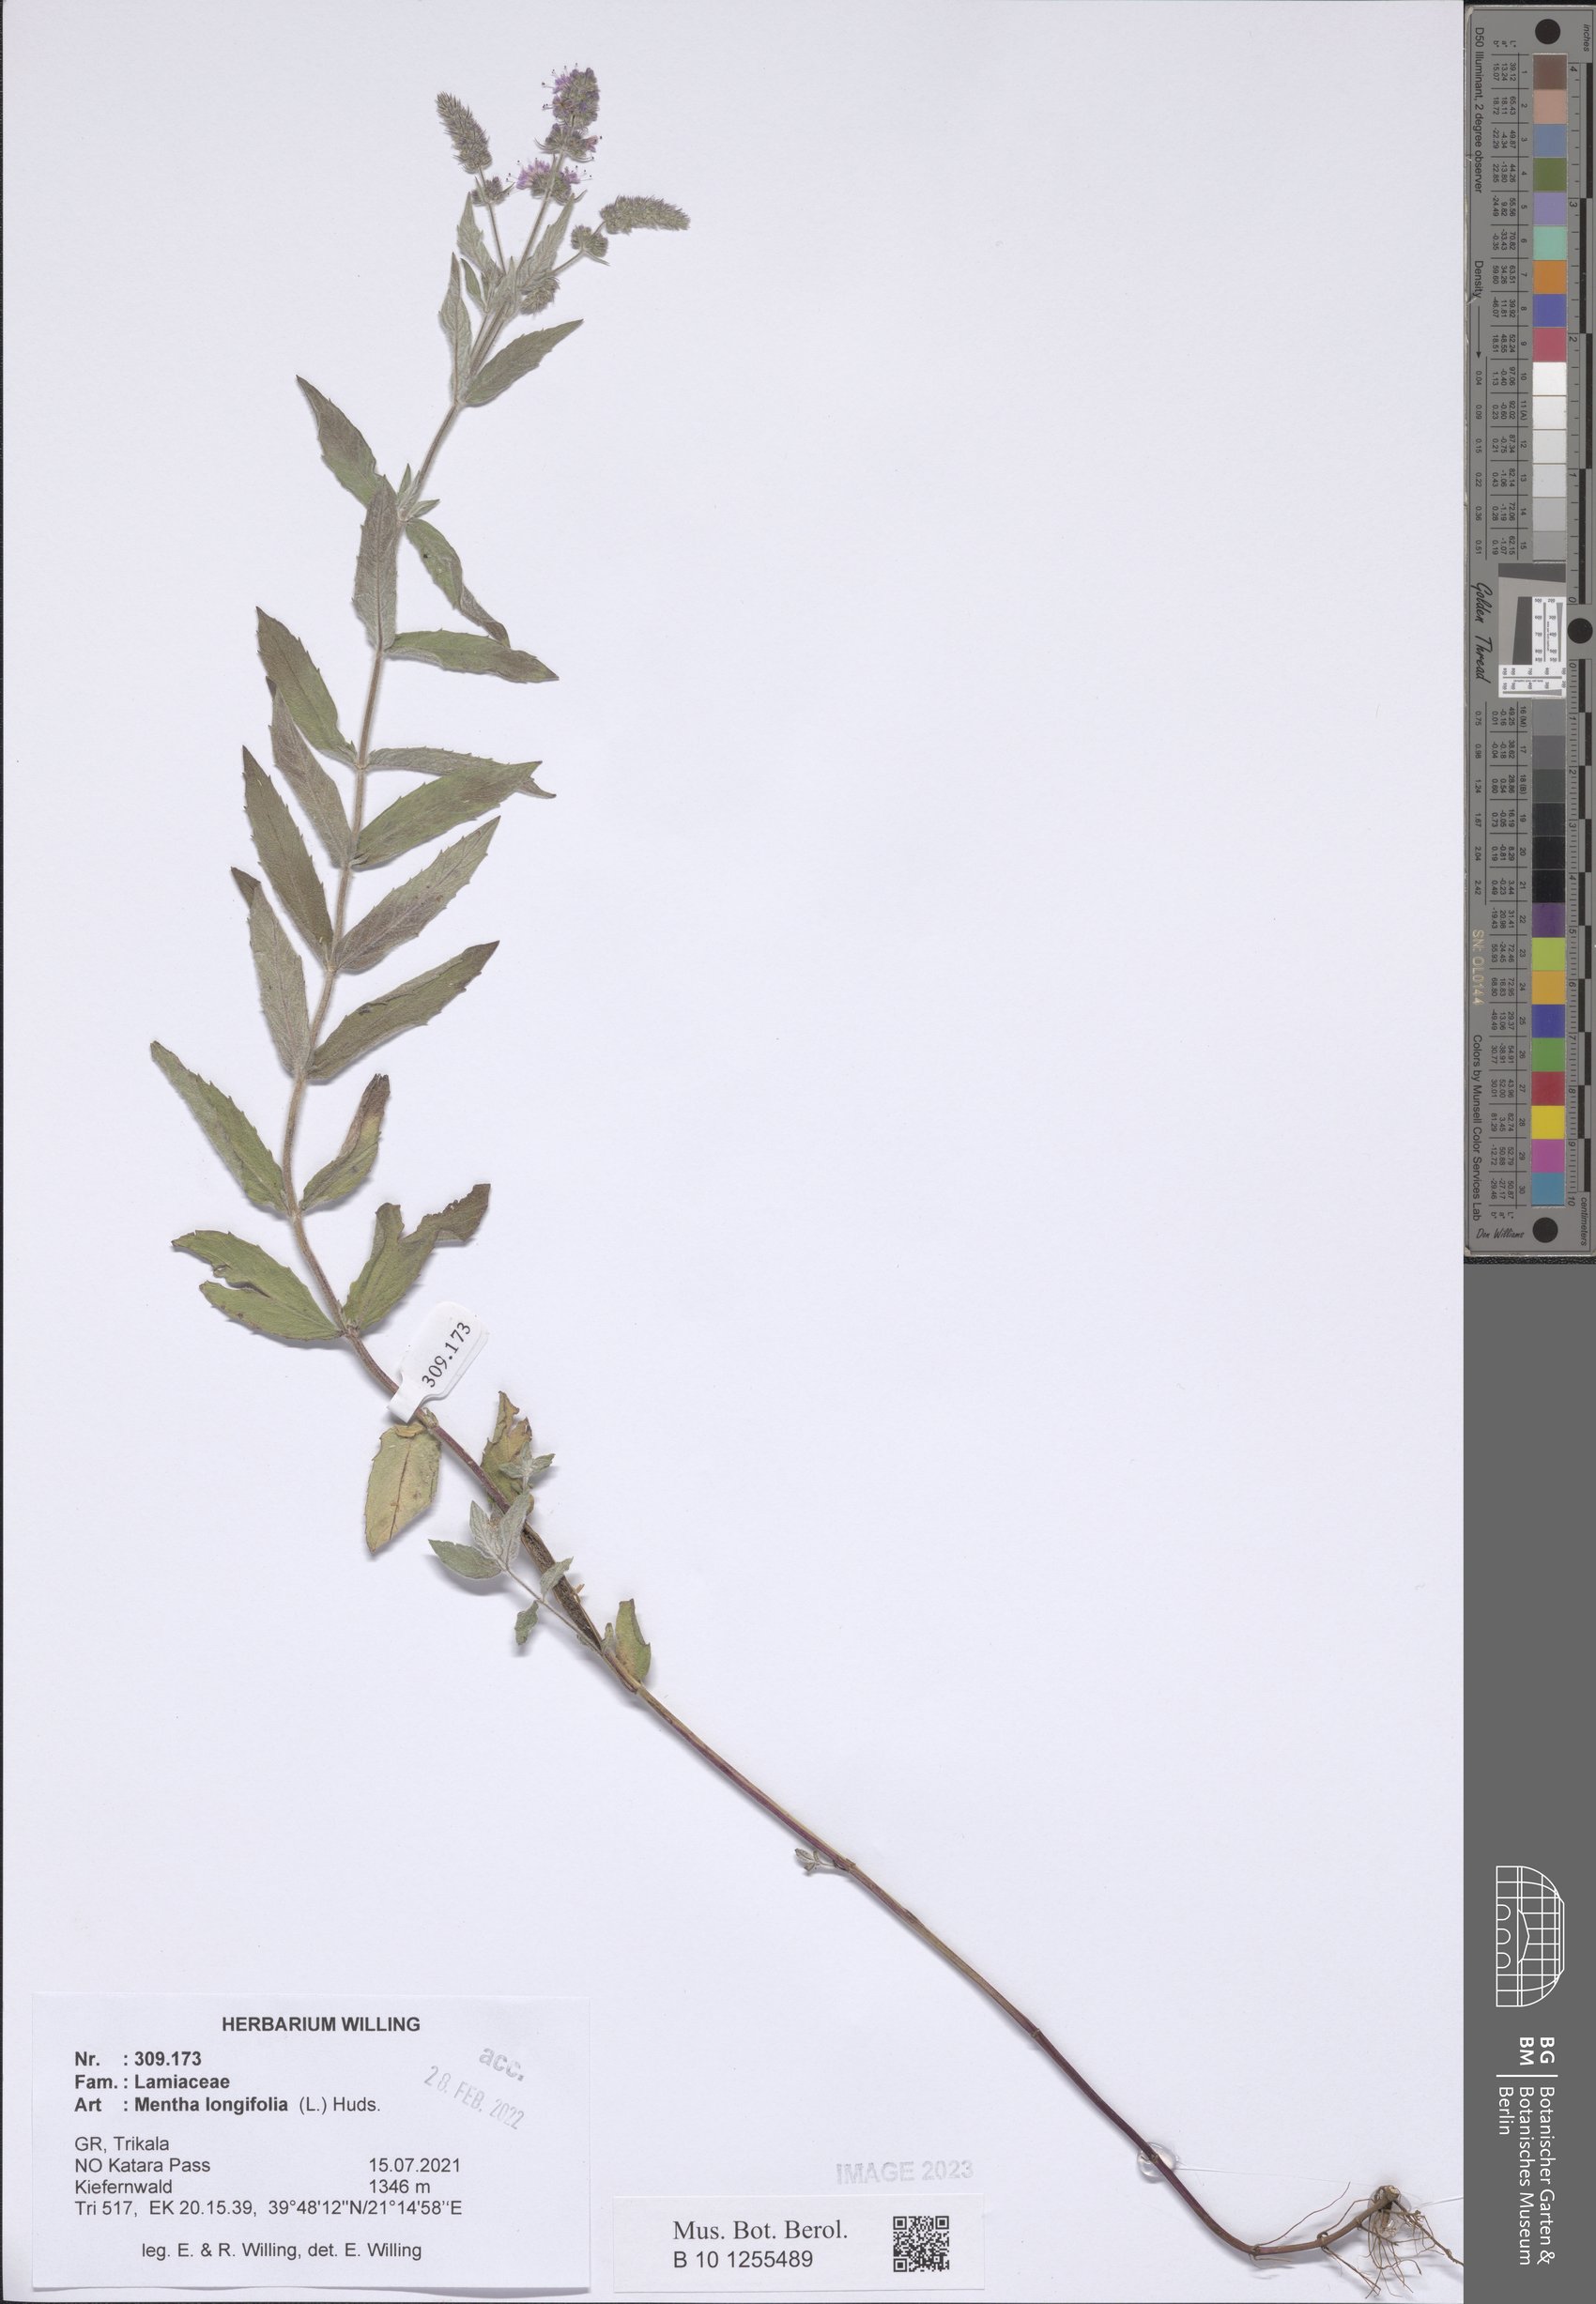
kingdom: Plantae
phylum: Tracheophyta
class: Magnoliopsida
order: Lamiales
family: Lamiaceae
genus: Mentha
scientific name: Mentha longifolia
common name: Horse mint
